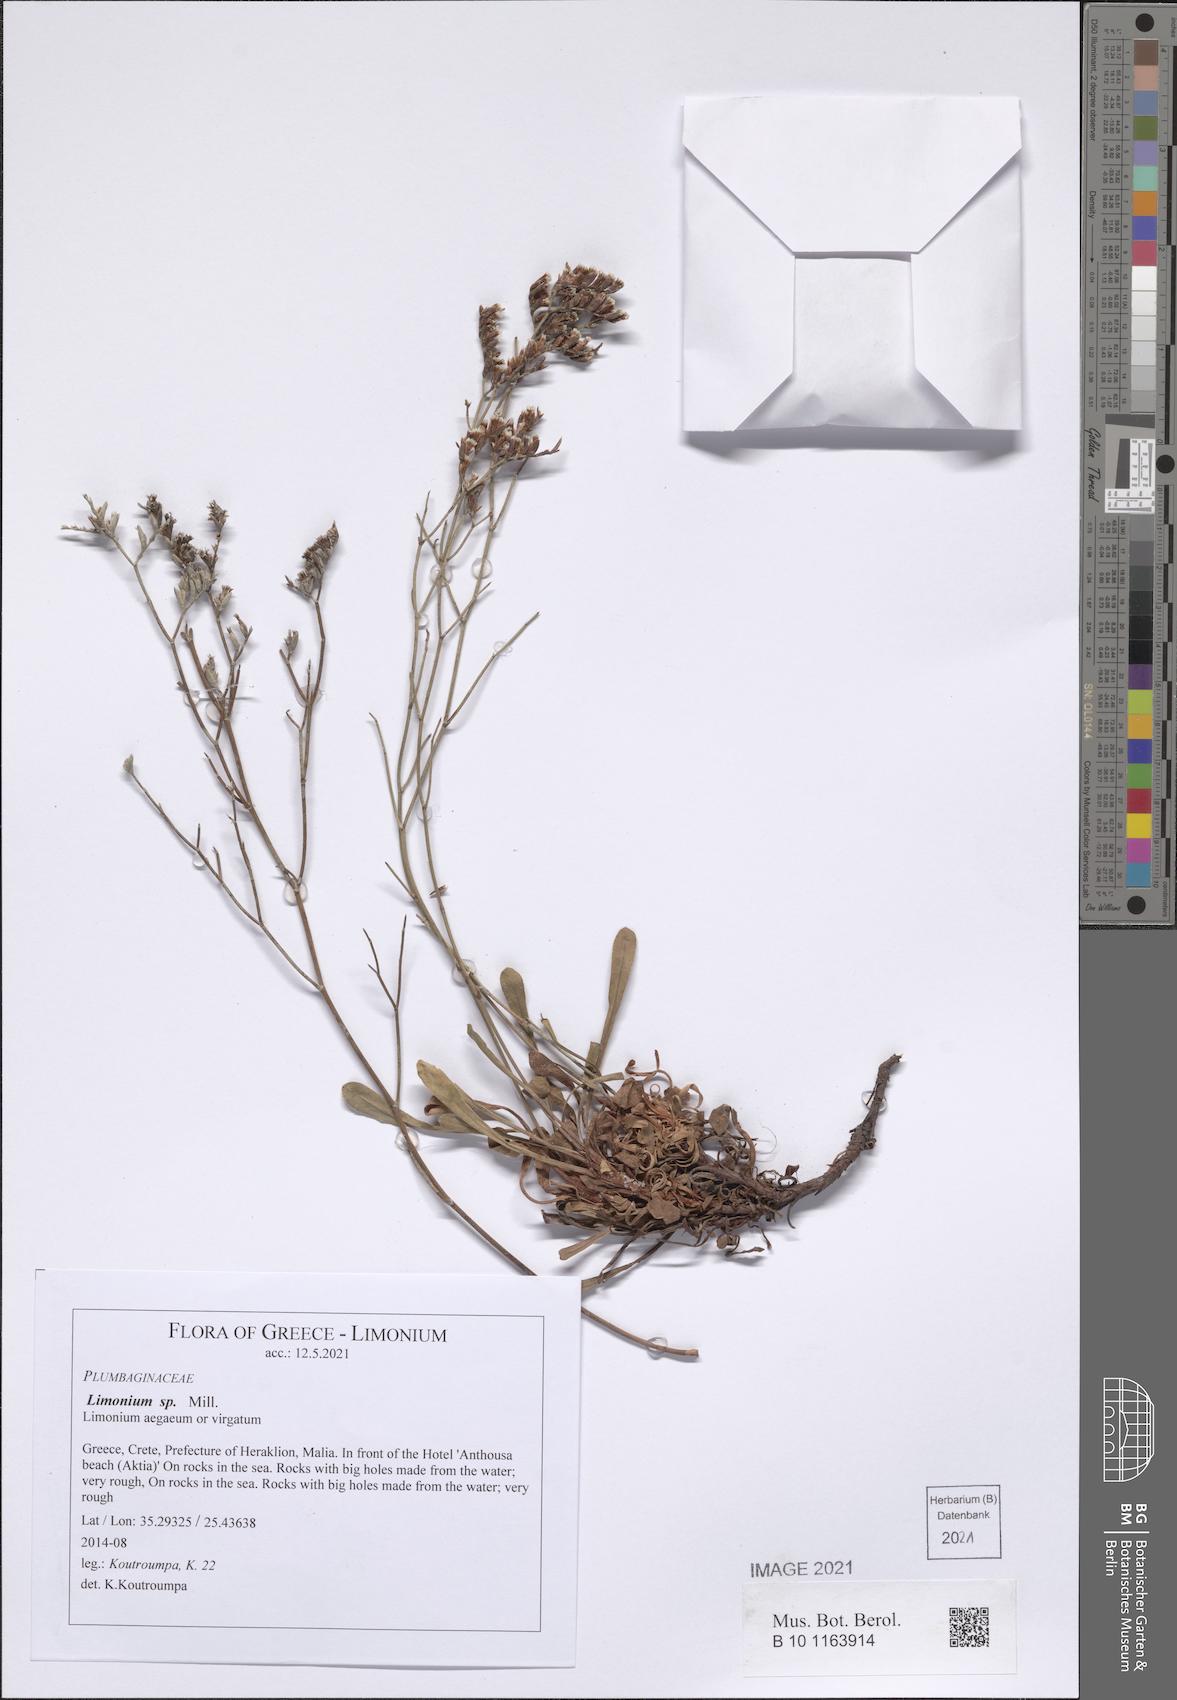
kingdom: Plantae
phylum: Tracheophyta
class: Magnoliopsida
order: Caryophyllales
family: Plumbaginaceae
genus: Limonium
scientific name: Limonium
